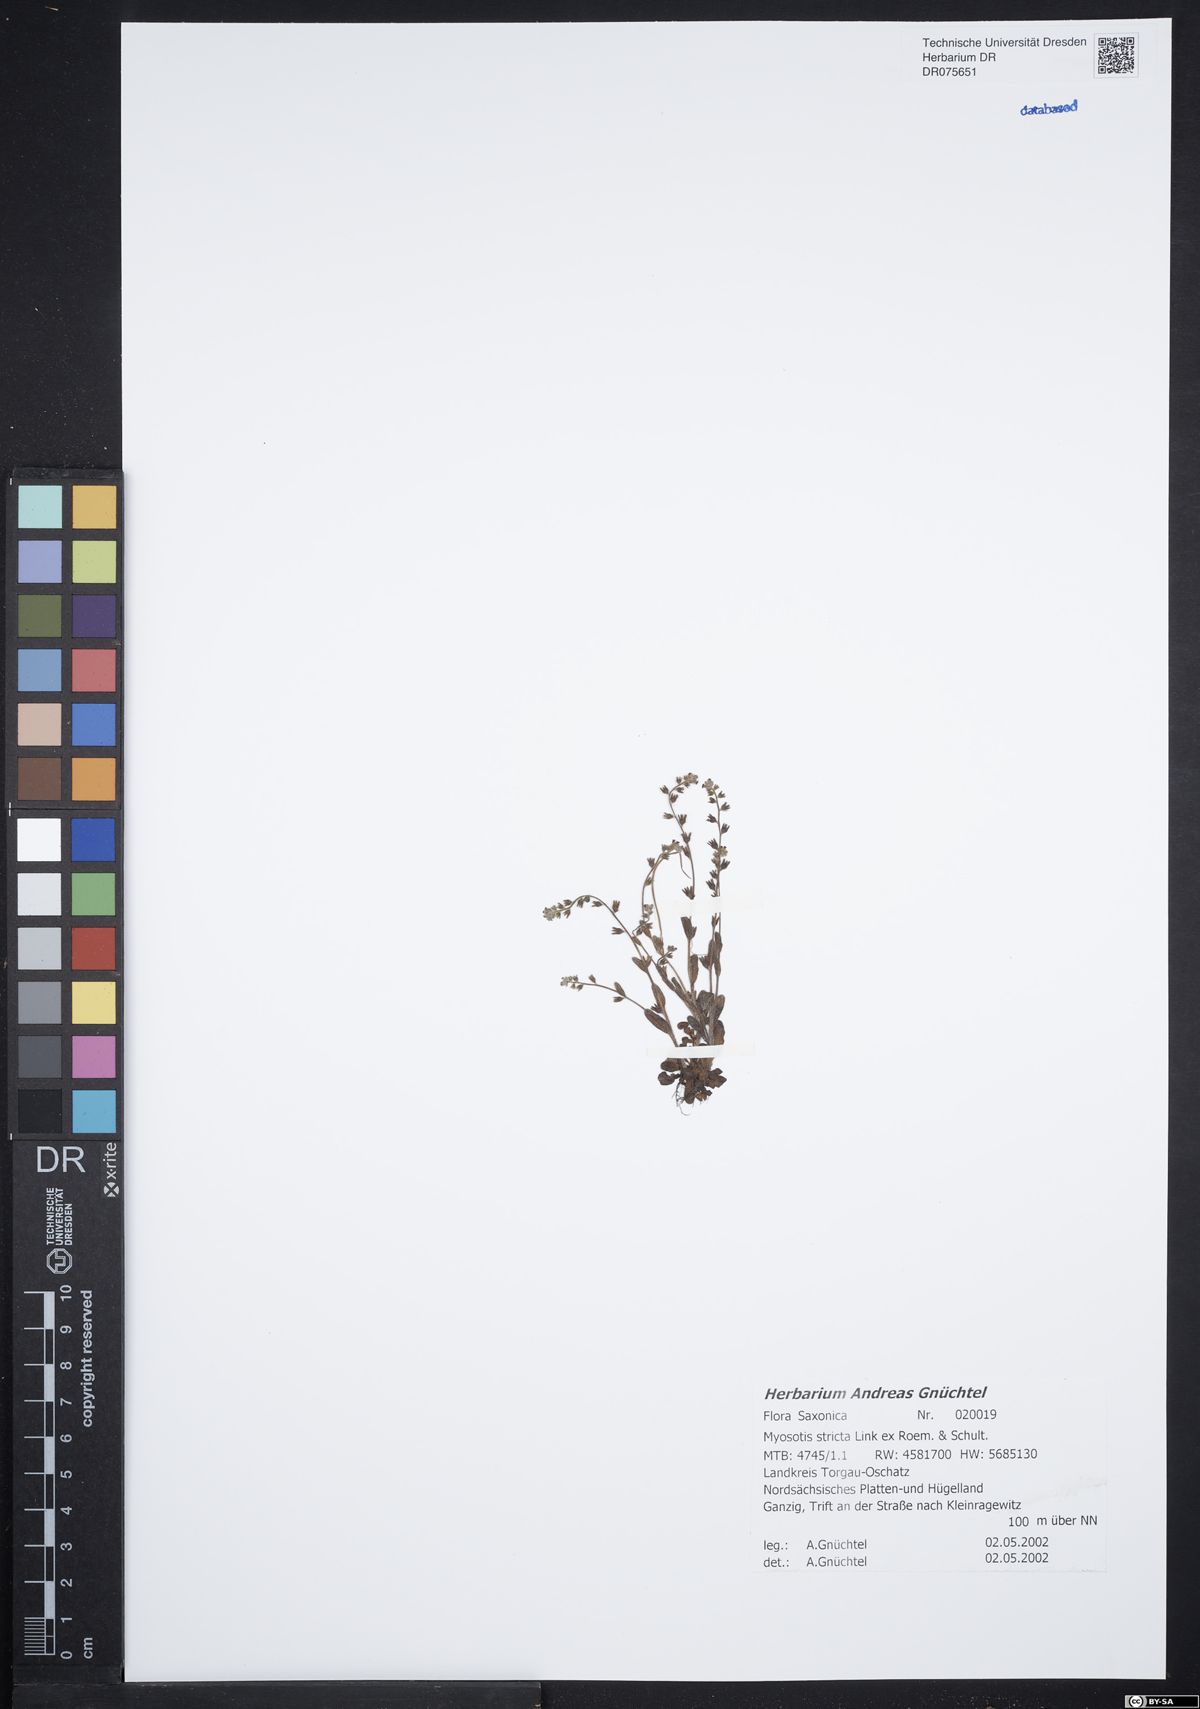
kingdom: Plantae
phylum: Tracheophyta
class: Magnoliopsida
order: Boraginales
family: Boraginaceae
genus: Myosotis
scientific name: Myosotis stricta
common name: Strict forget-me-not
